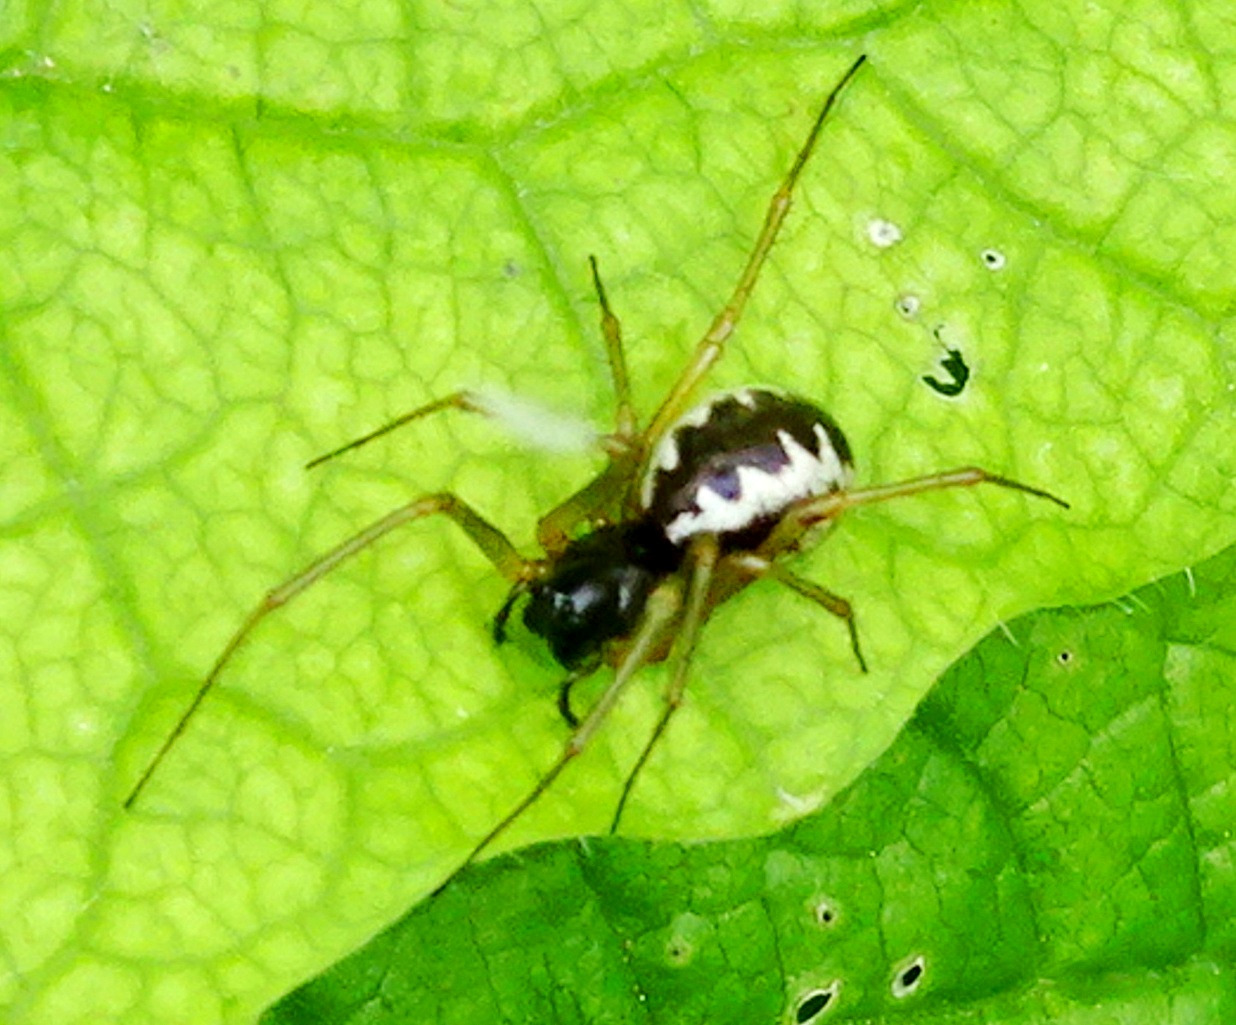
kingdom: Animalia
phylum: Arthropoda
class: Arachnida
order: Araneae
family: Linyphiidae
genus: Linyphia
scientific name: Linyphia hortensis
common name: Skovbaldakinspinder
